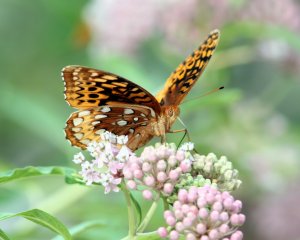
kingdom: Animalia
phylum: Arthropoda
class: Insecta
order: Lepidoptera
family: Nymphalidae
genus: Speyeria
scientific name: Speyeria cybele
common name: Great Spangled Fritillary
